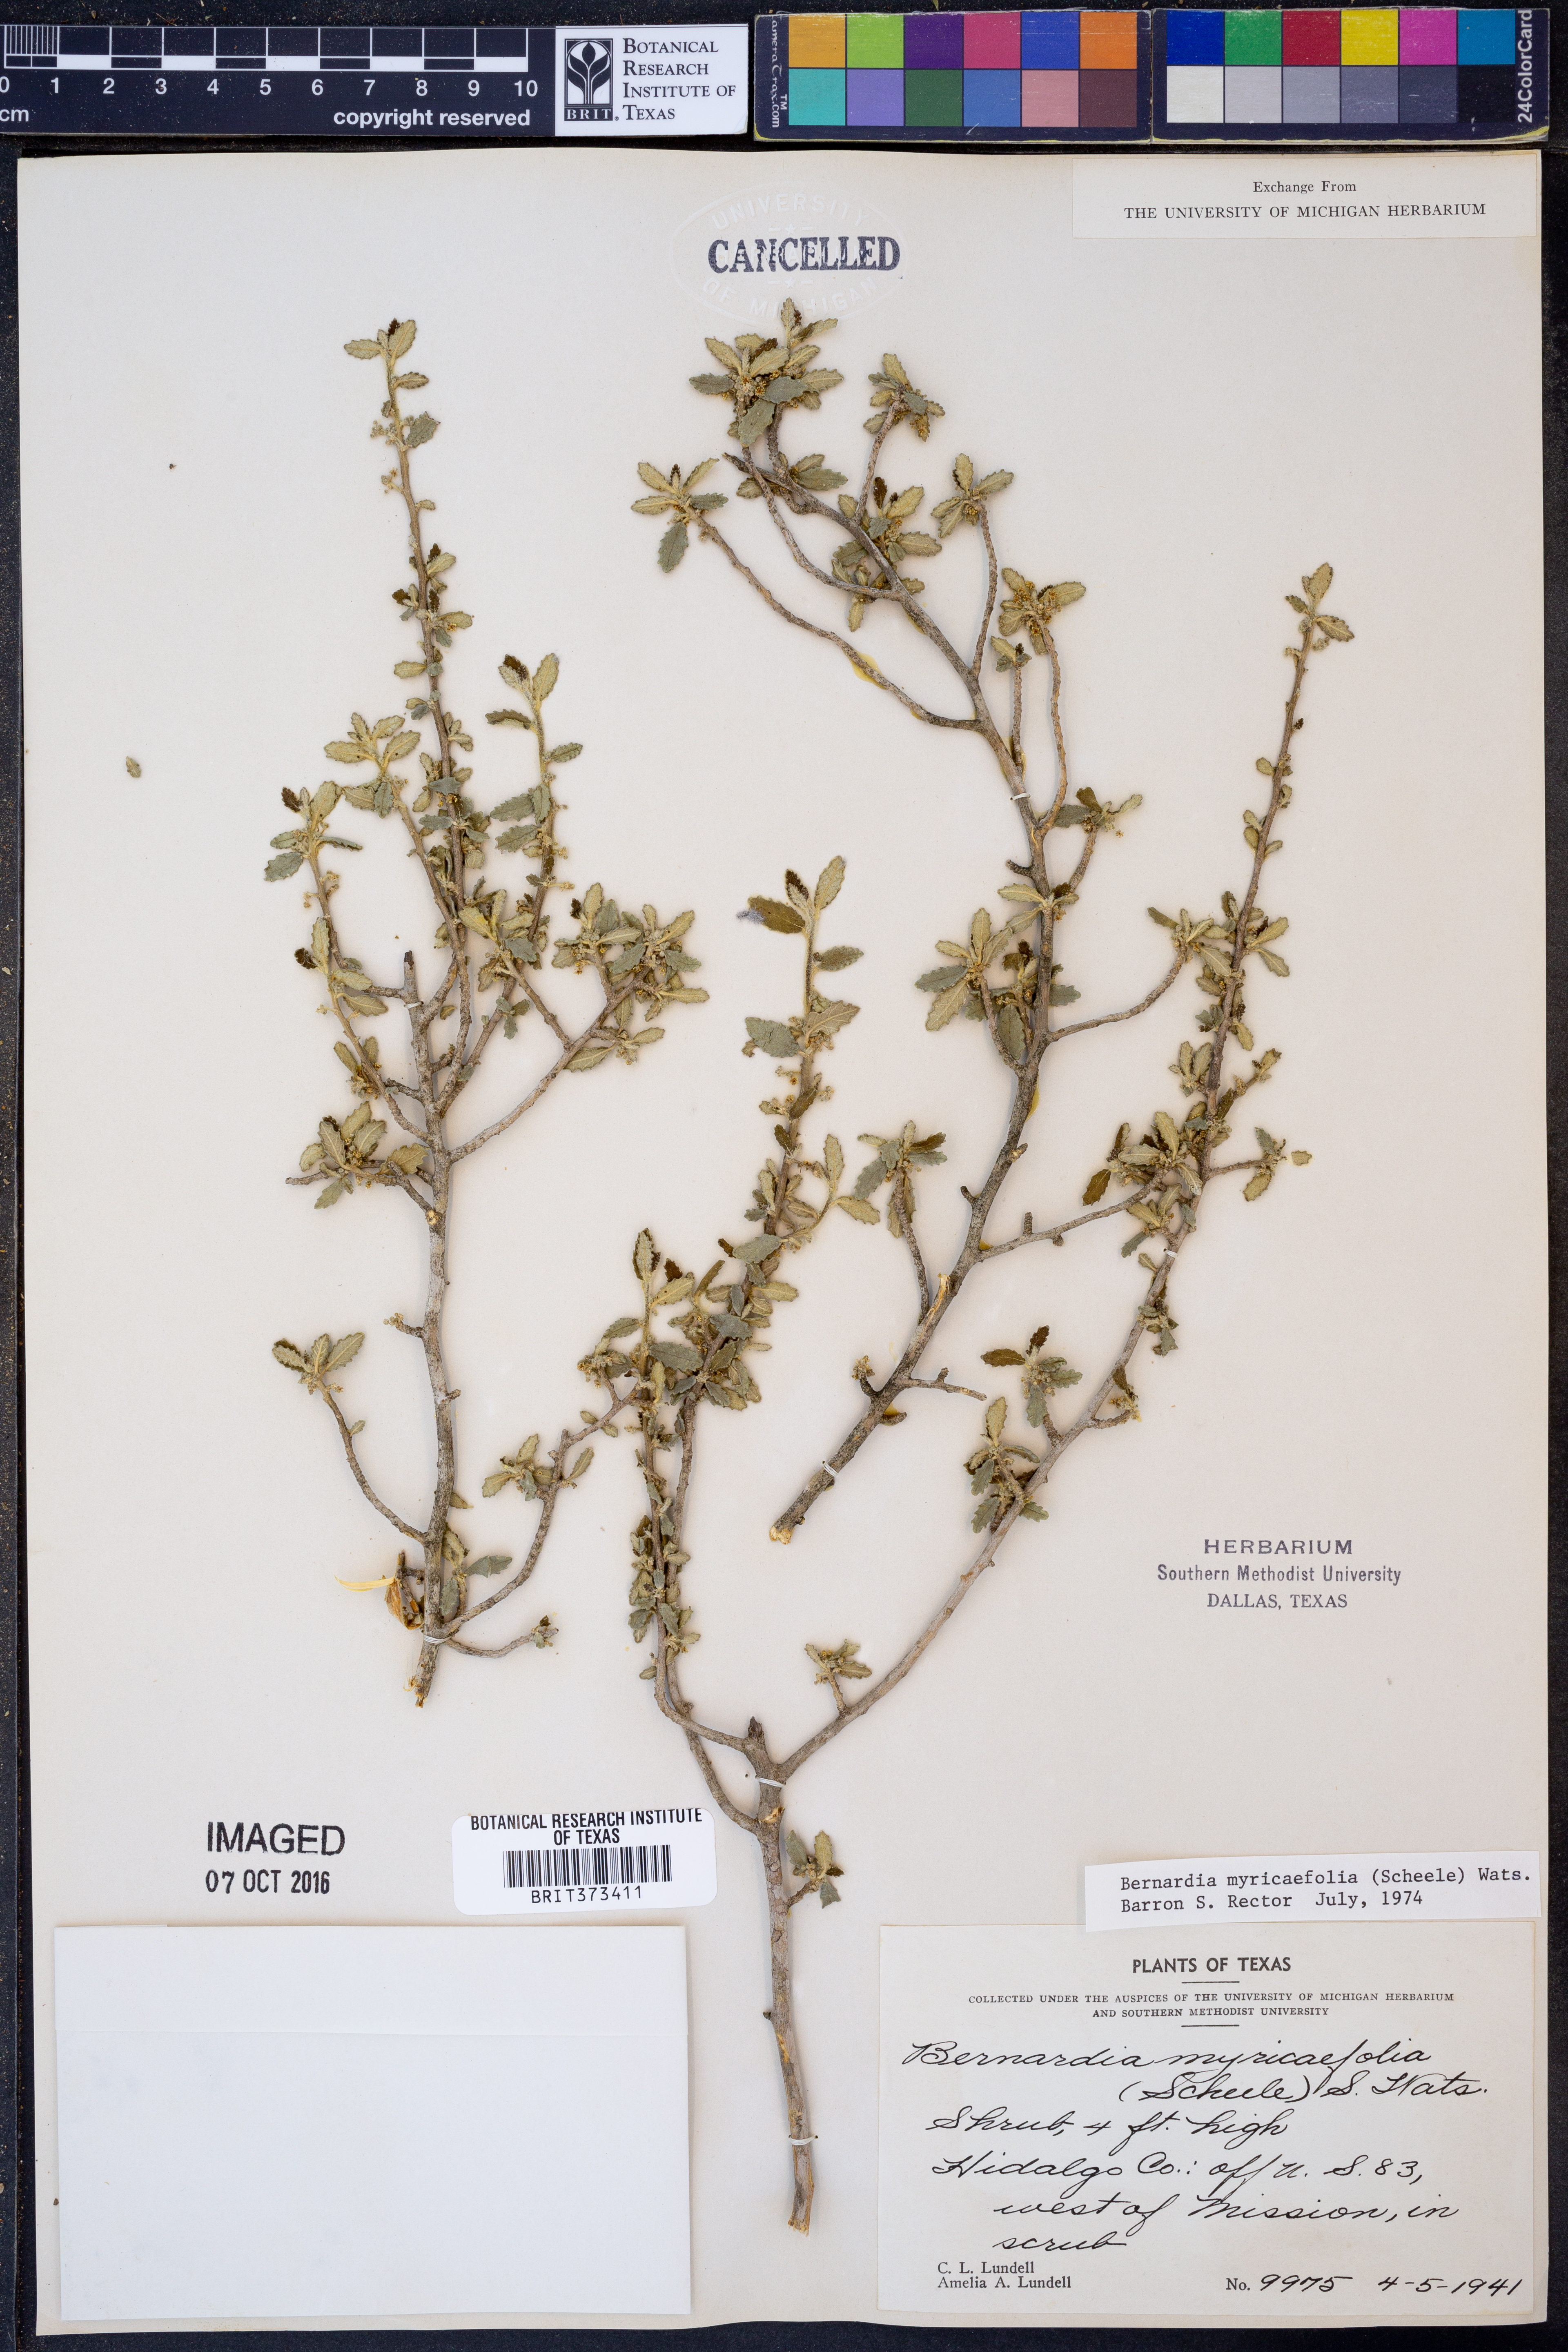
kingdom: Plantae
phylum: Tracheophyta
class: Magnoliopsida
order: Malpighiales
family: Euphorbiaceae
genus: Bernardia
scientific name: Bernardia myricifolia
